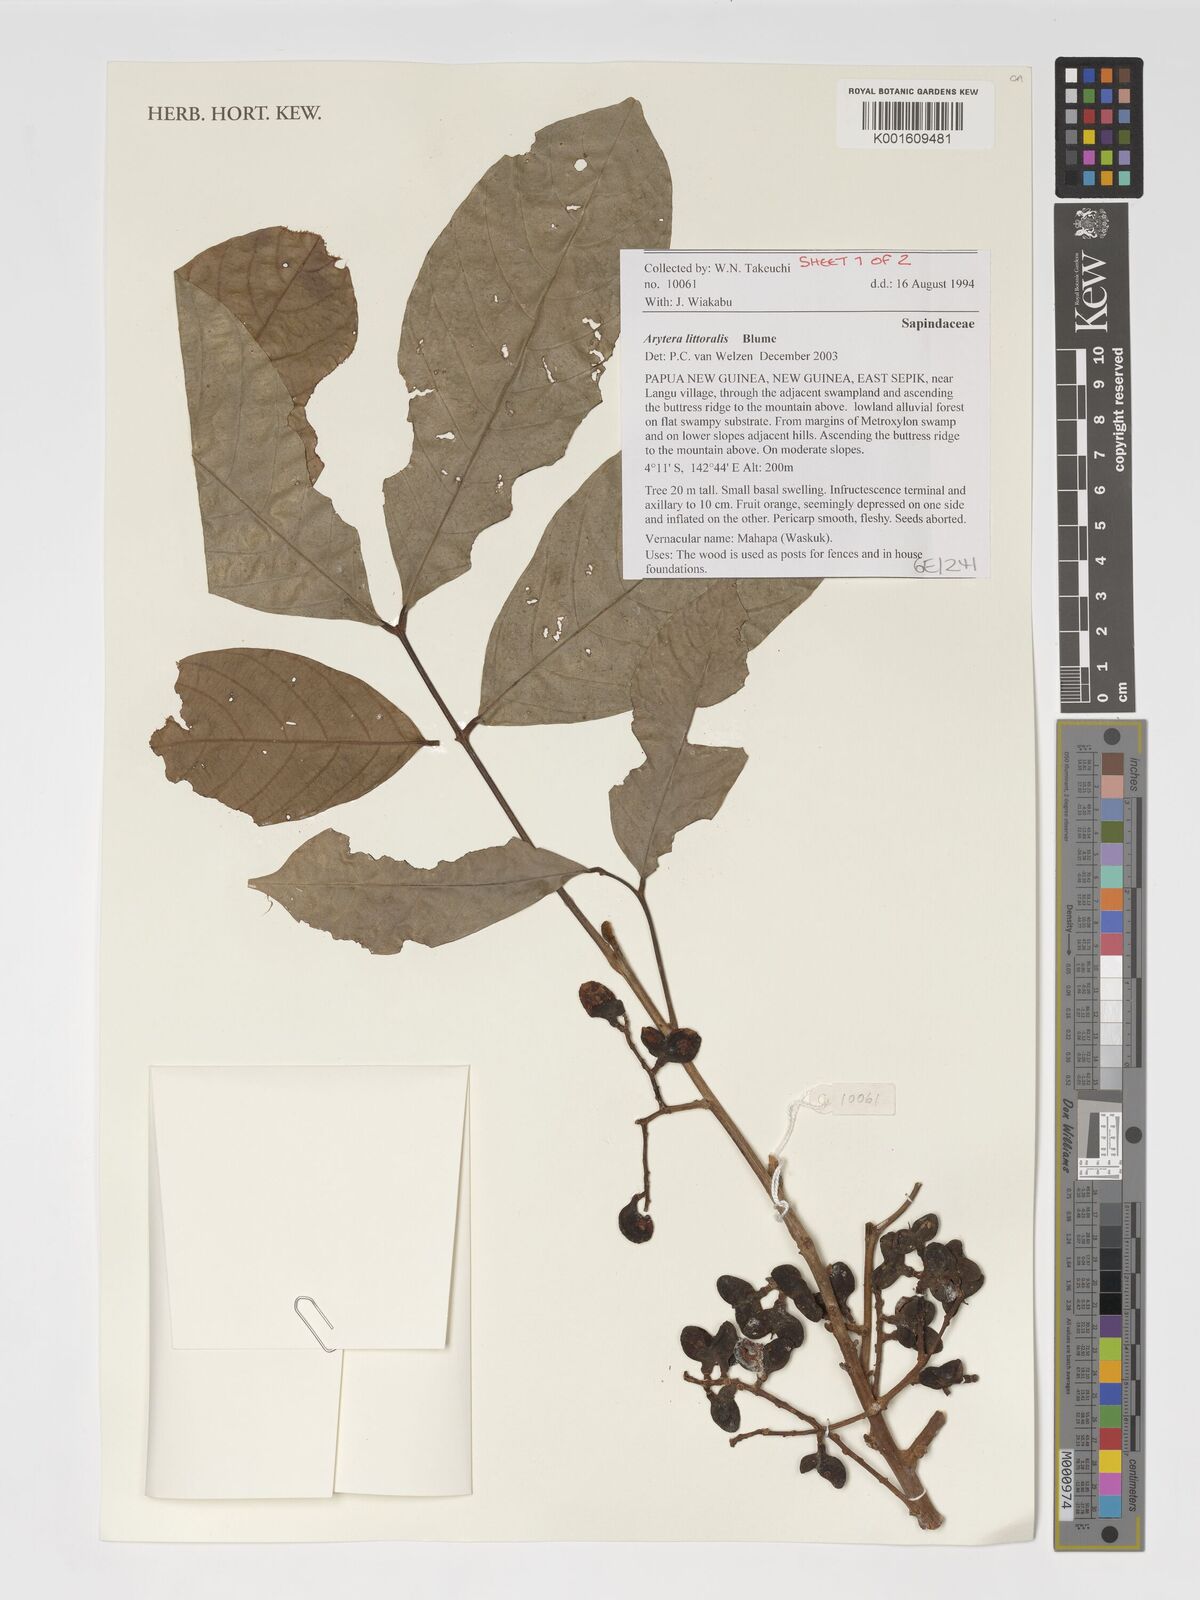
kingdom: Plantae
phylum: Tracheophyta
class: Magnoliopsida
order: Sapindales
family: Sapindaceae
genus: Arytera
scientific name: Arytera litoralis
